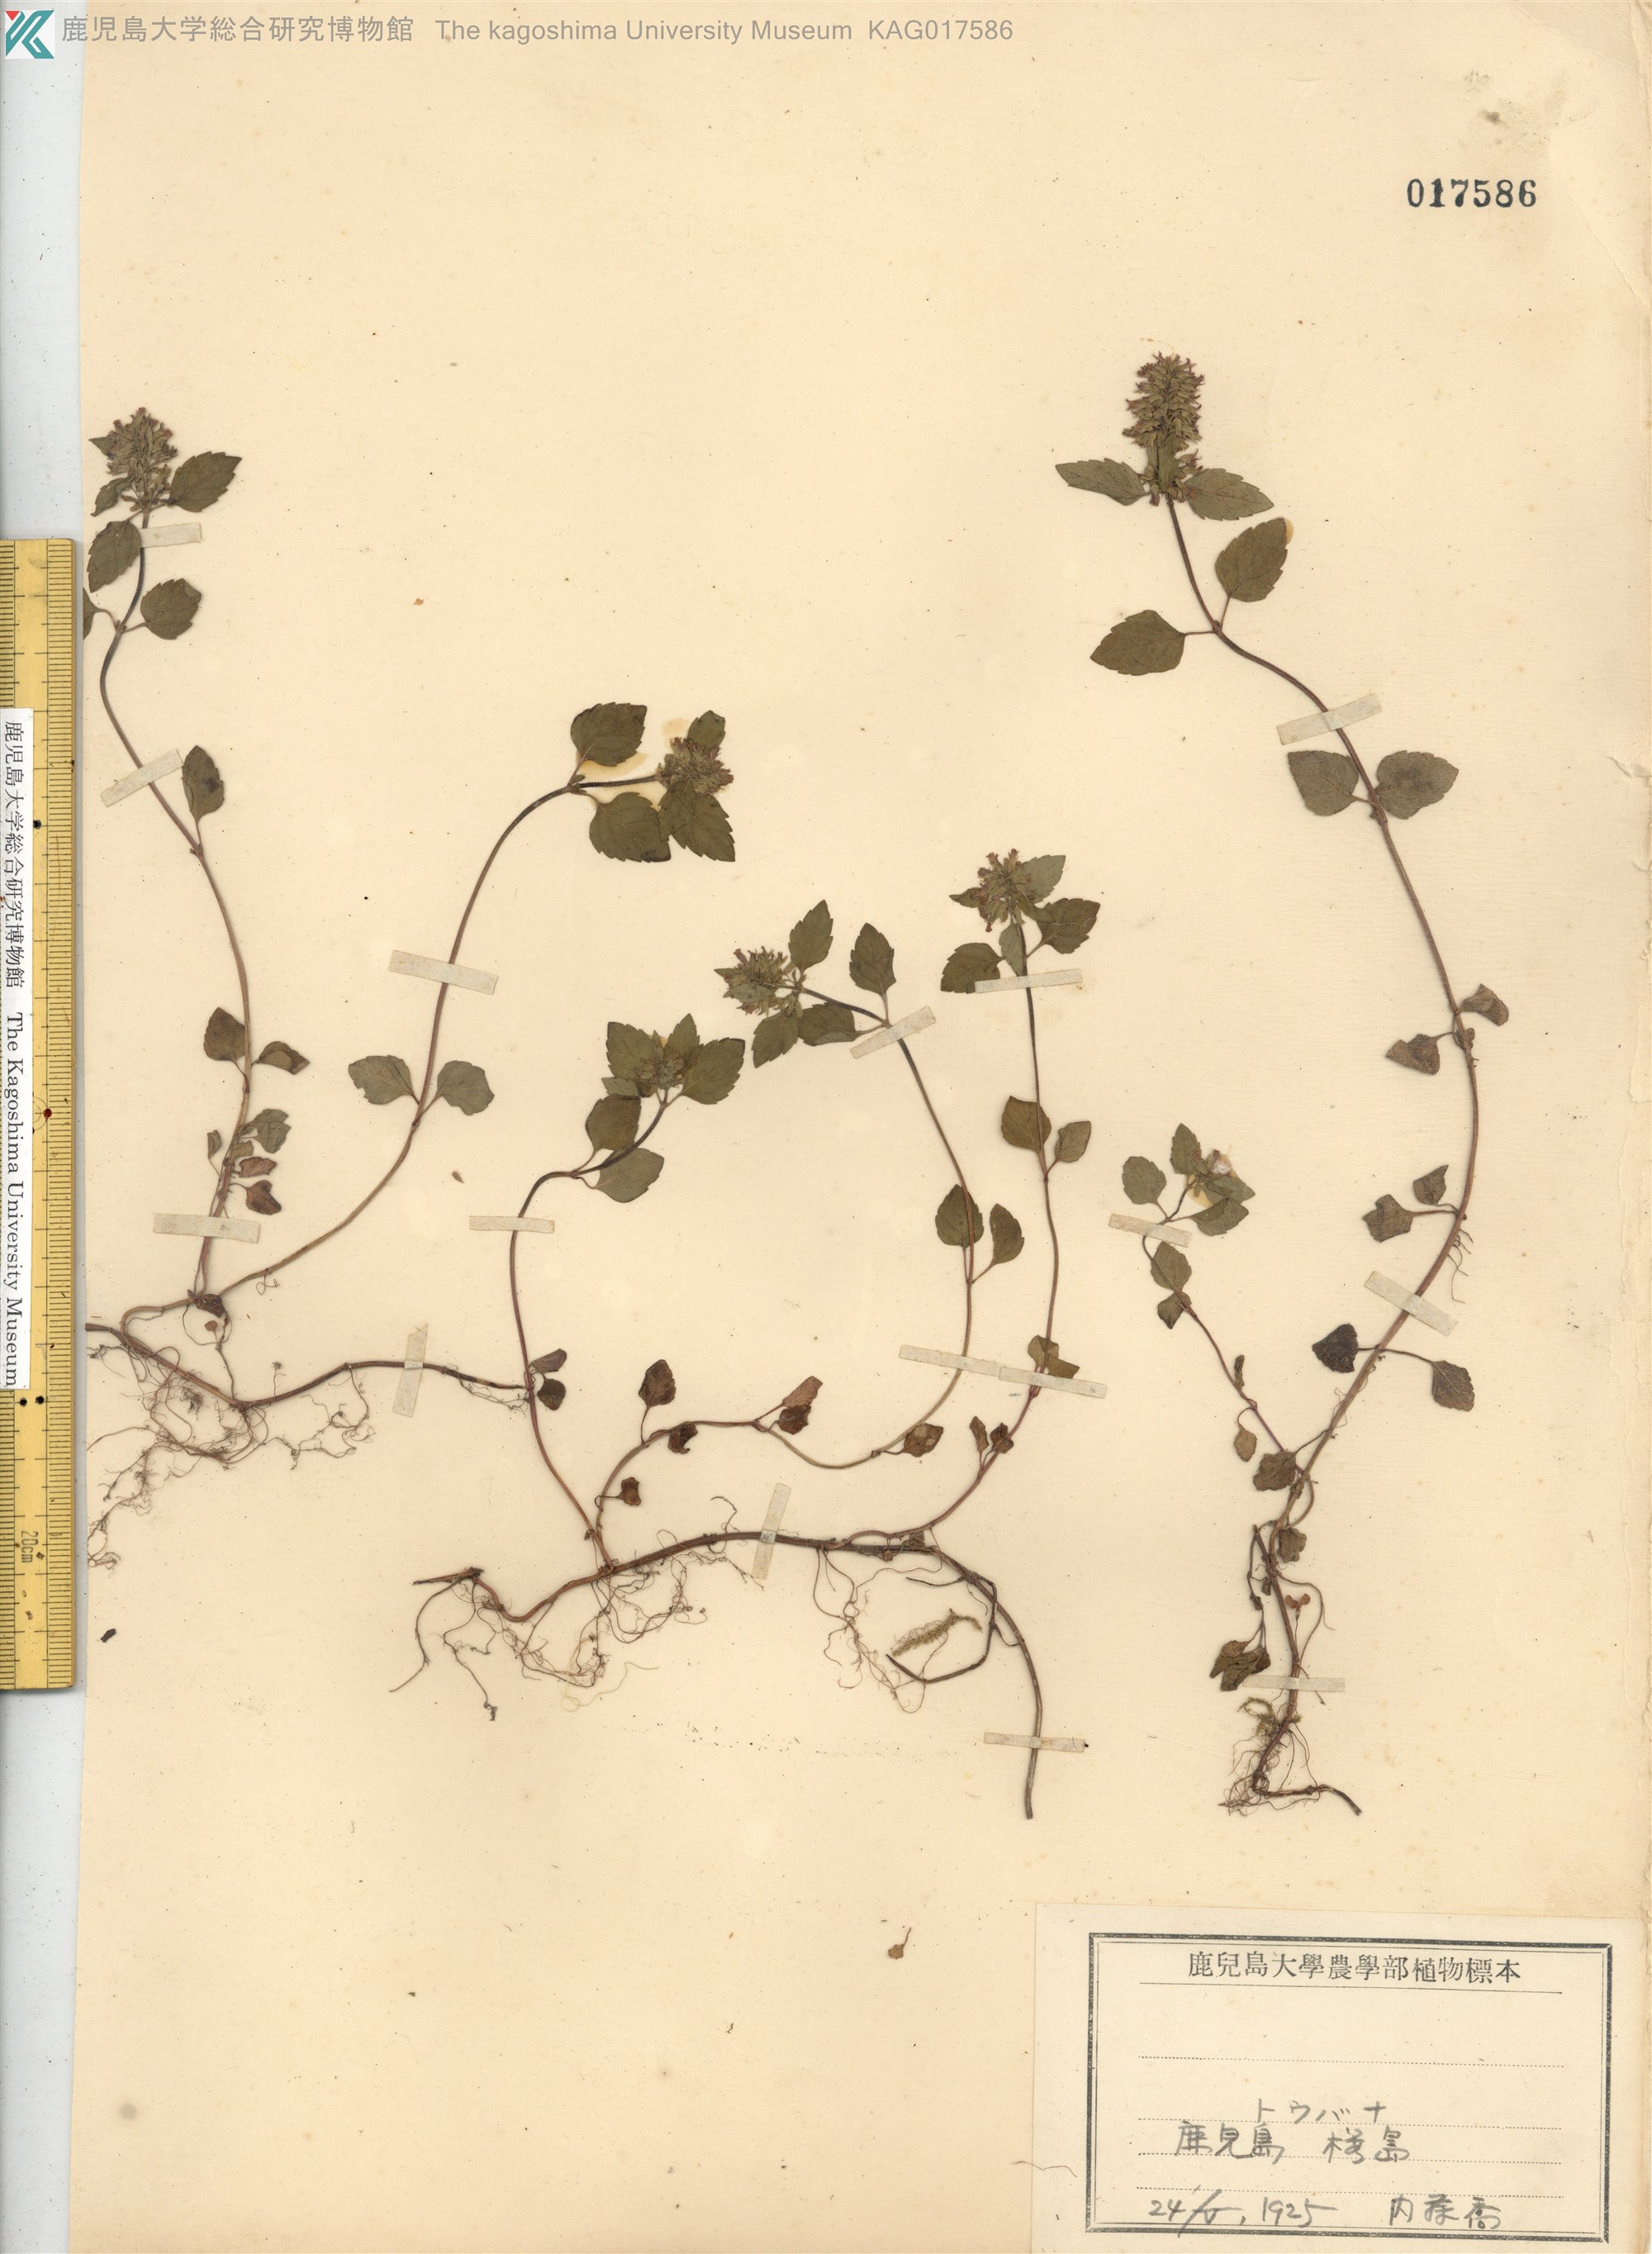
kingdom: Plantae
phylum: Tracheophyta
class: Magnoliopsida
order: Lamiales
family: Lamiaceae
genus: Clinopodium
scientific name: Clinopodium gracile
